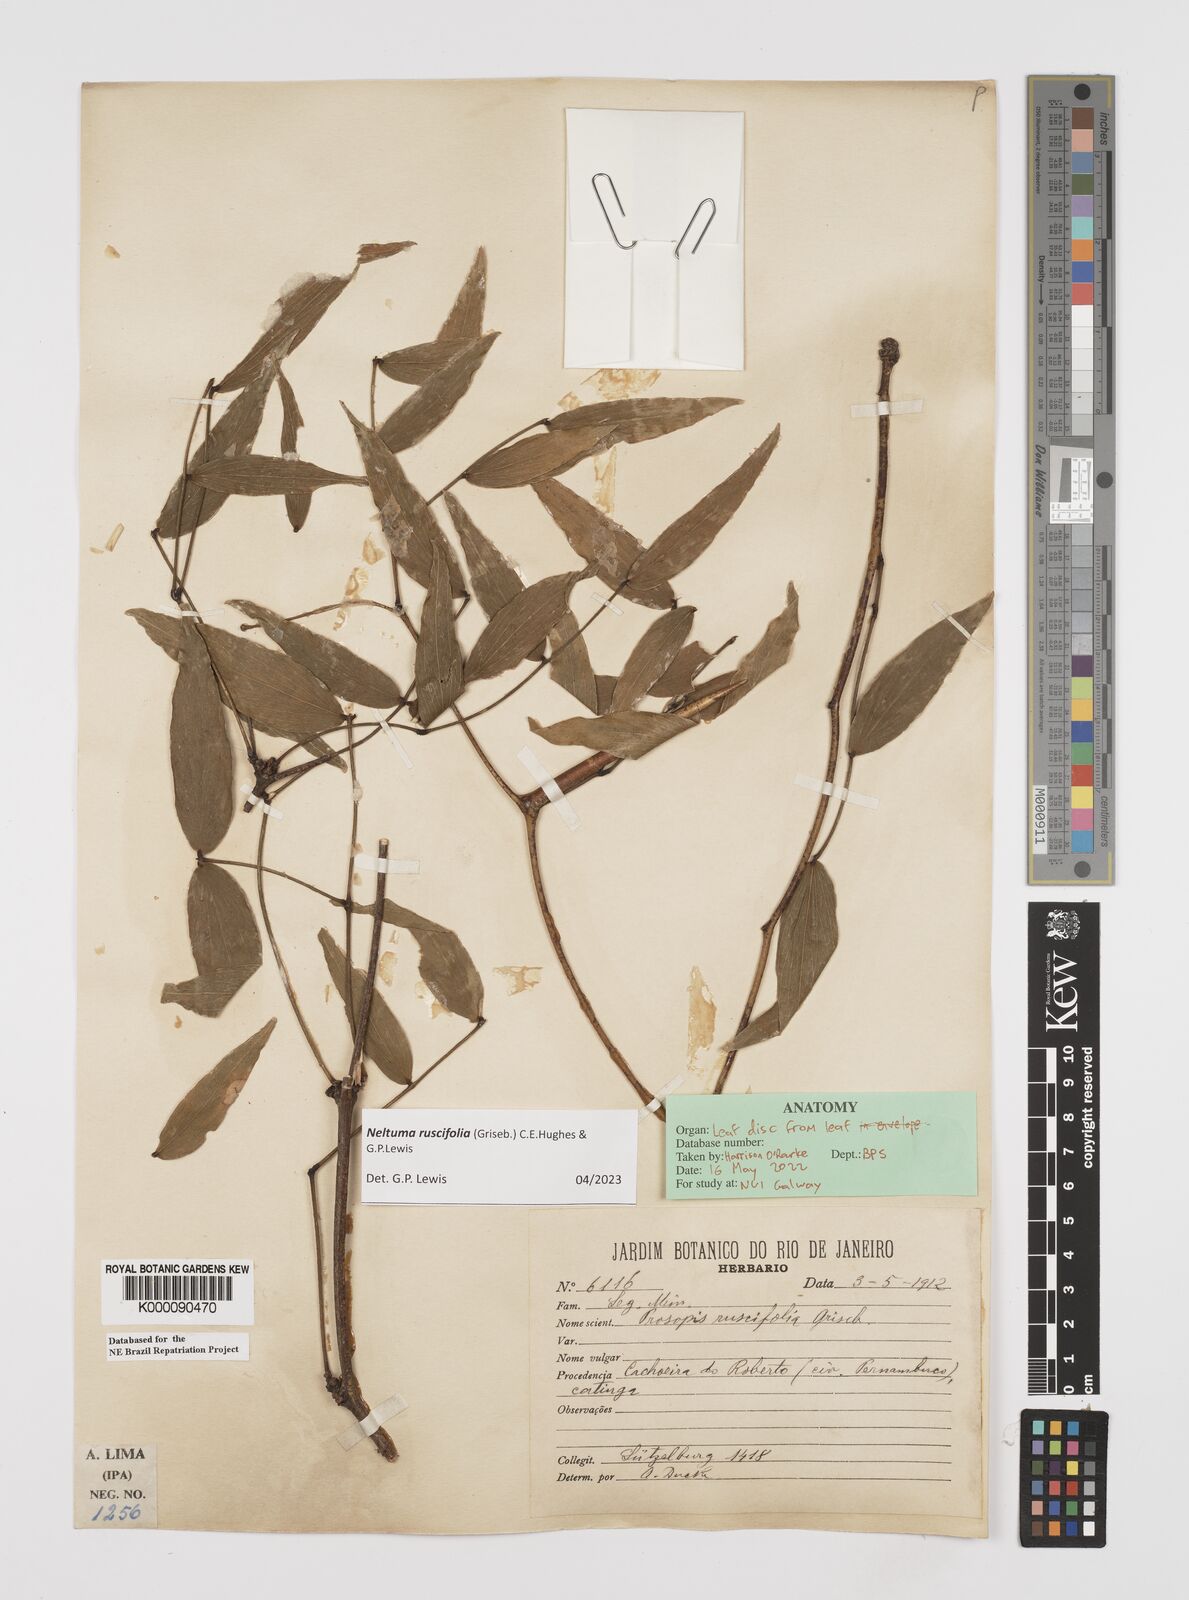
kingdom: Plantae
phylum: Tracheophyta
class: Magnoliopsida
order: Fabales
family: Fabaceae
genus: Prosopis
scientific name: Prosopis ruscifolia
